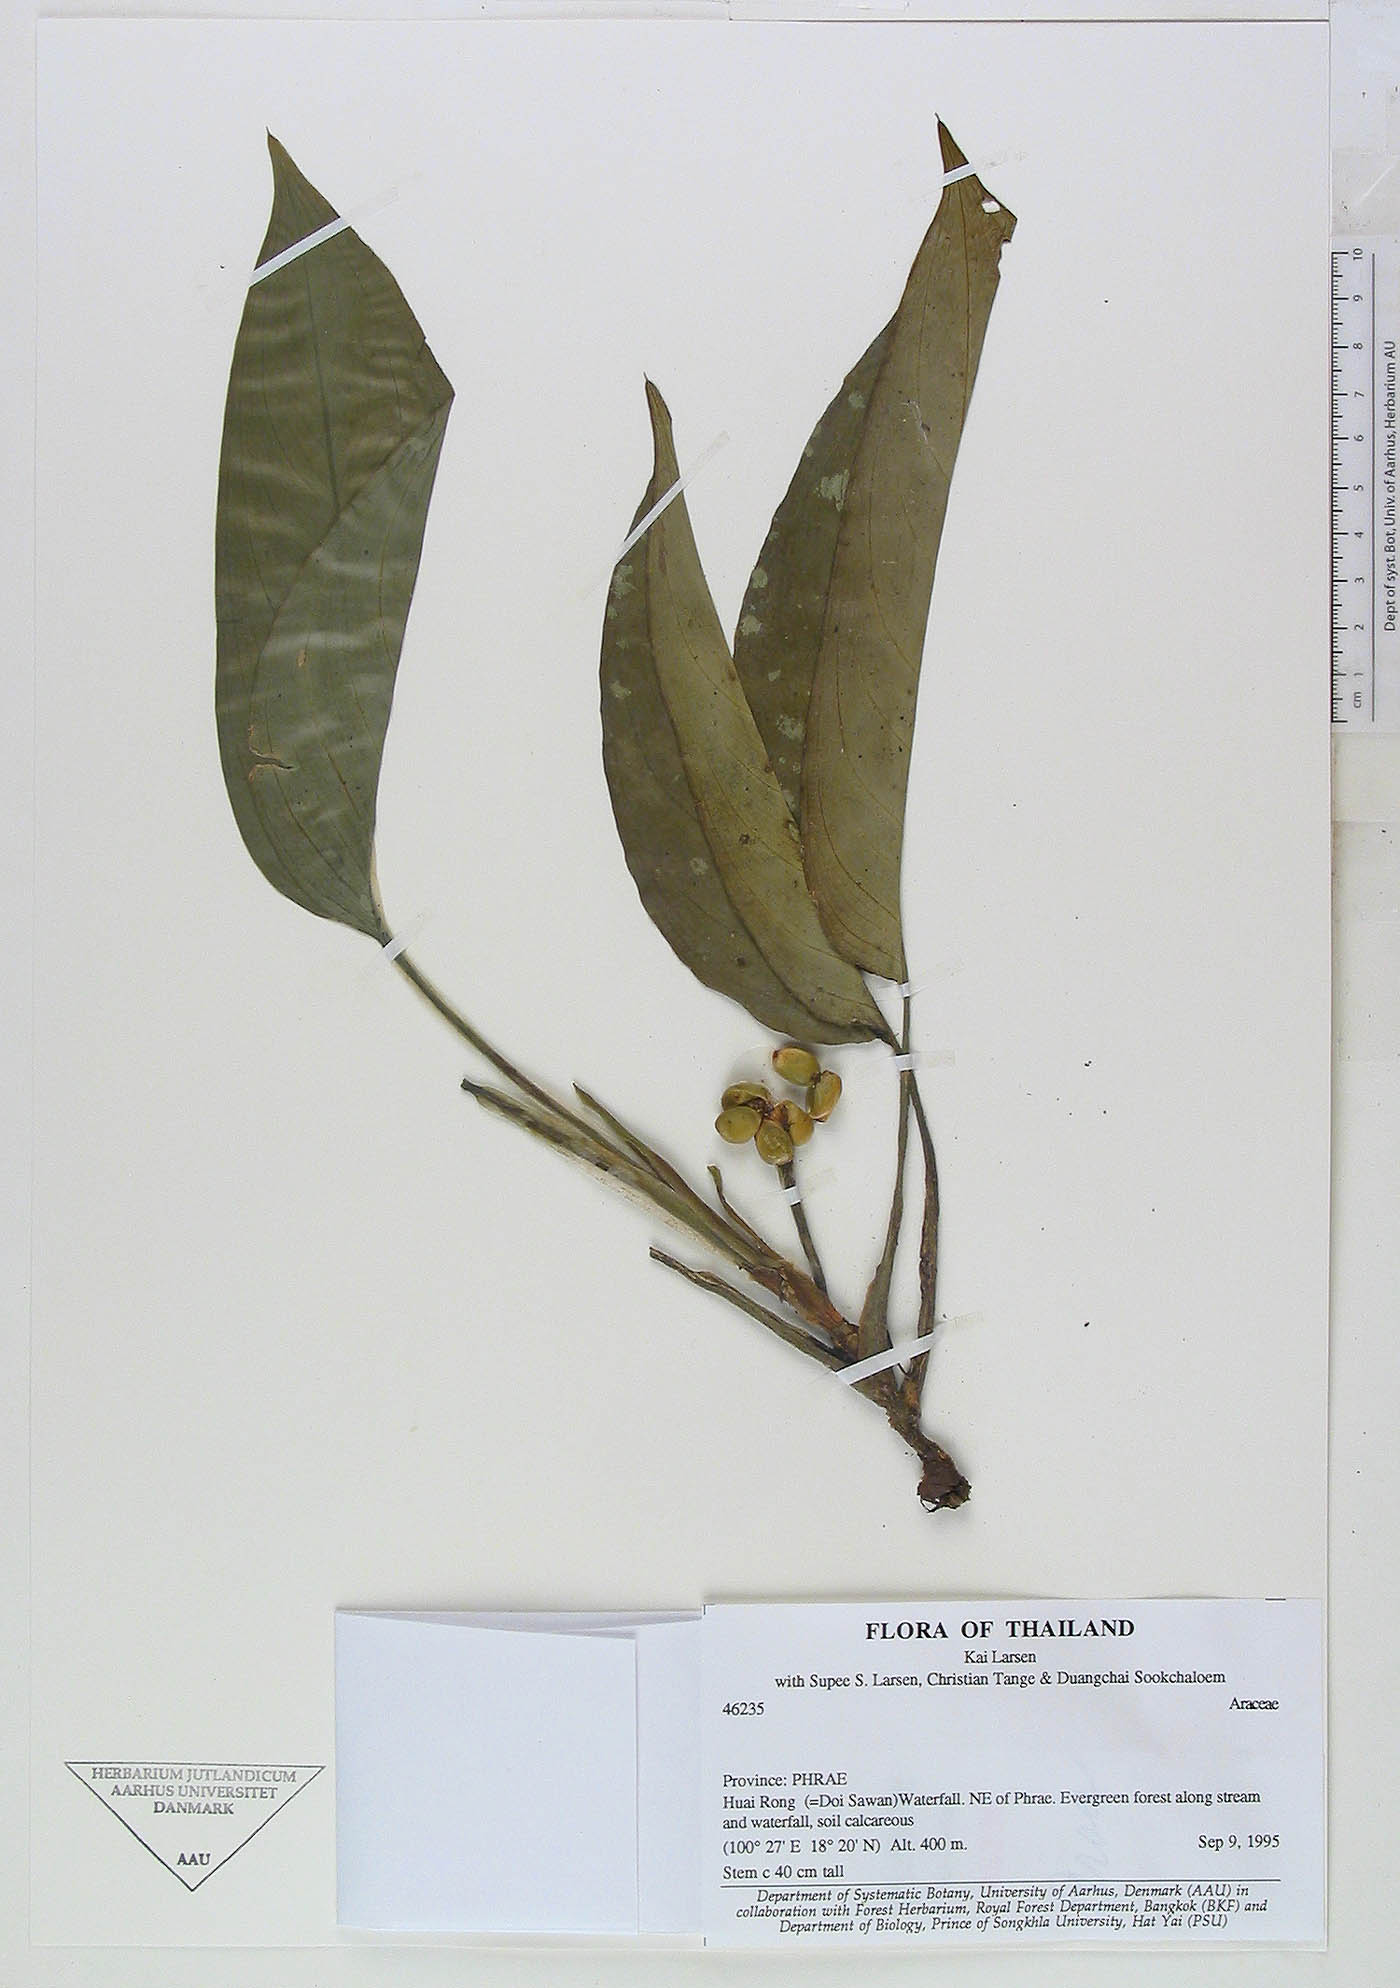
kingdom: Plantae
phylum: Tracheophyta
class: Liliopsida
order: Alismatales
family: Araceae
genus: Aglaonema
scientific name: Aglaonema simplex
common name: Malayan-sword
